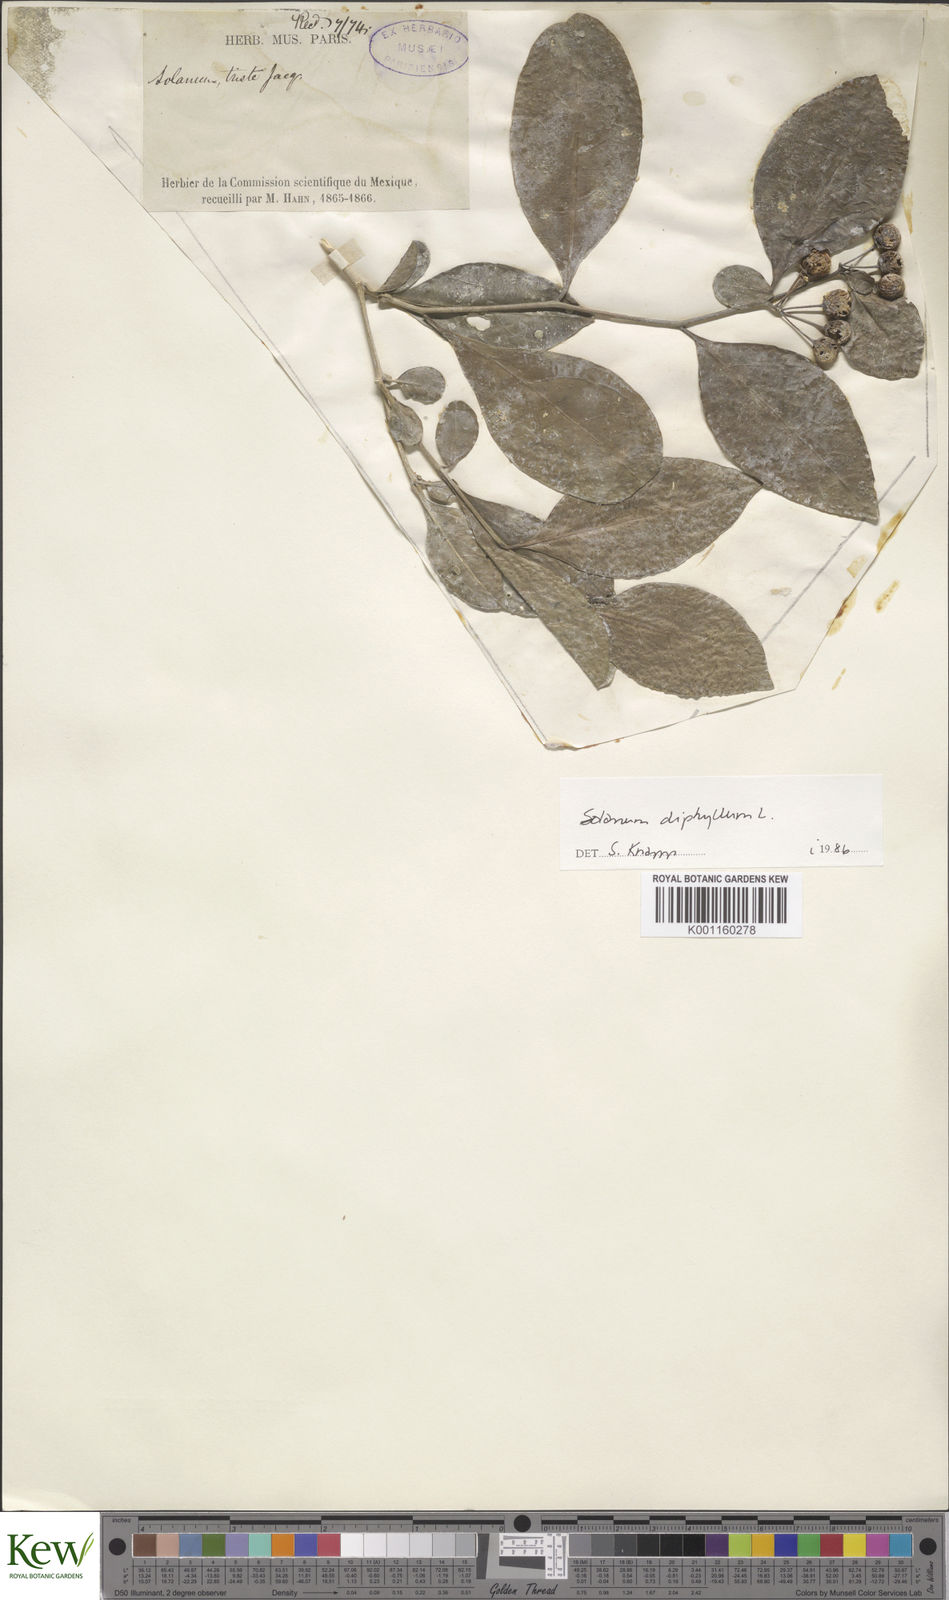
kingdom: Plantae
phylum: Tracheophyta
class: Magnoliopsida
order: Solanales
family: Solanaceae
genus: Solanum
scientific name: Solanum diphyllum
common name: Twoleaf nightshade
